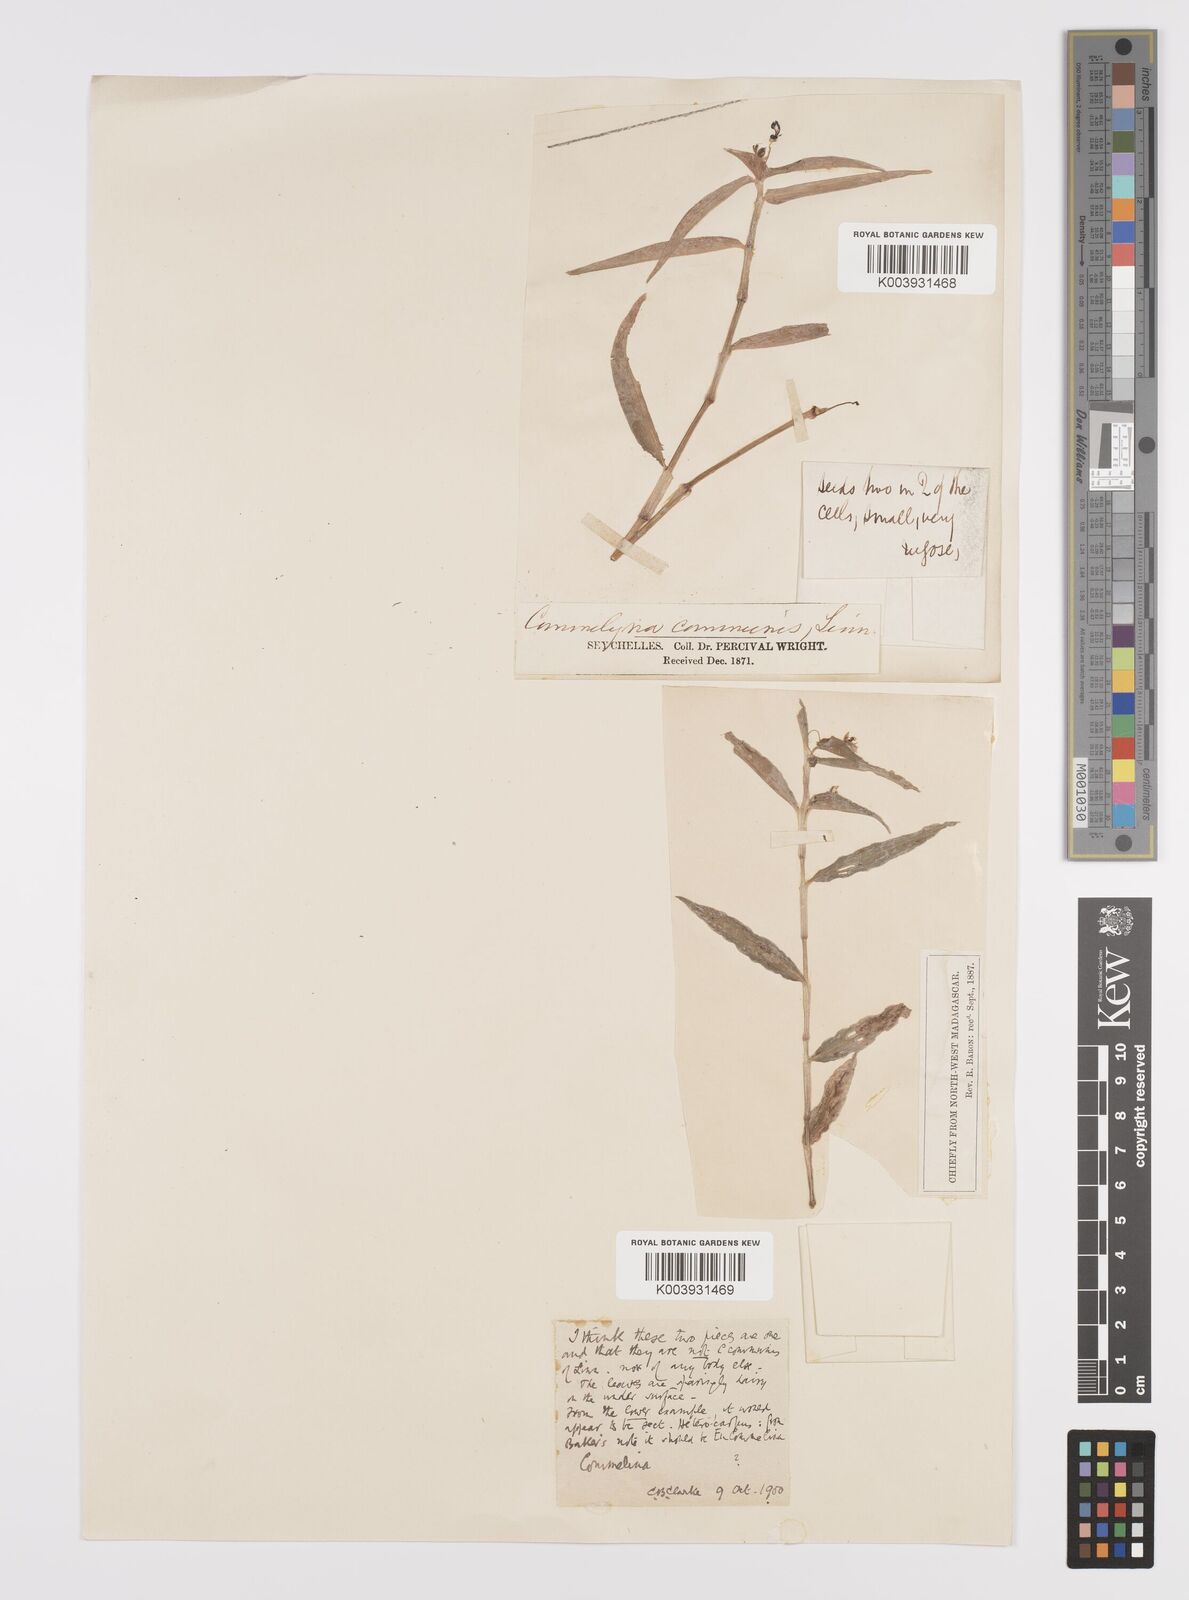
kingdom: Plantae
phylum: Tracheophyta
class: Liliopsida
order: Commelinales
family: Commelinaceae
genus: Commelina
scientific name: Commelina longifolia
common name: Longleaf dayflower
